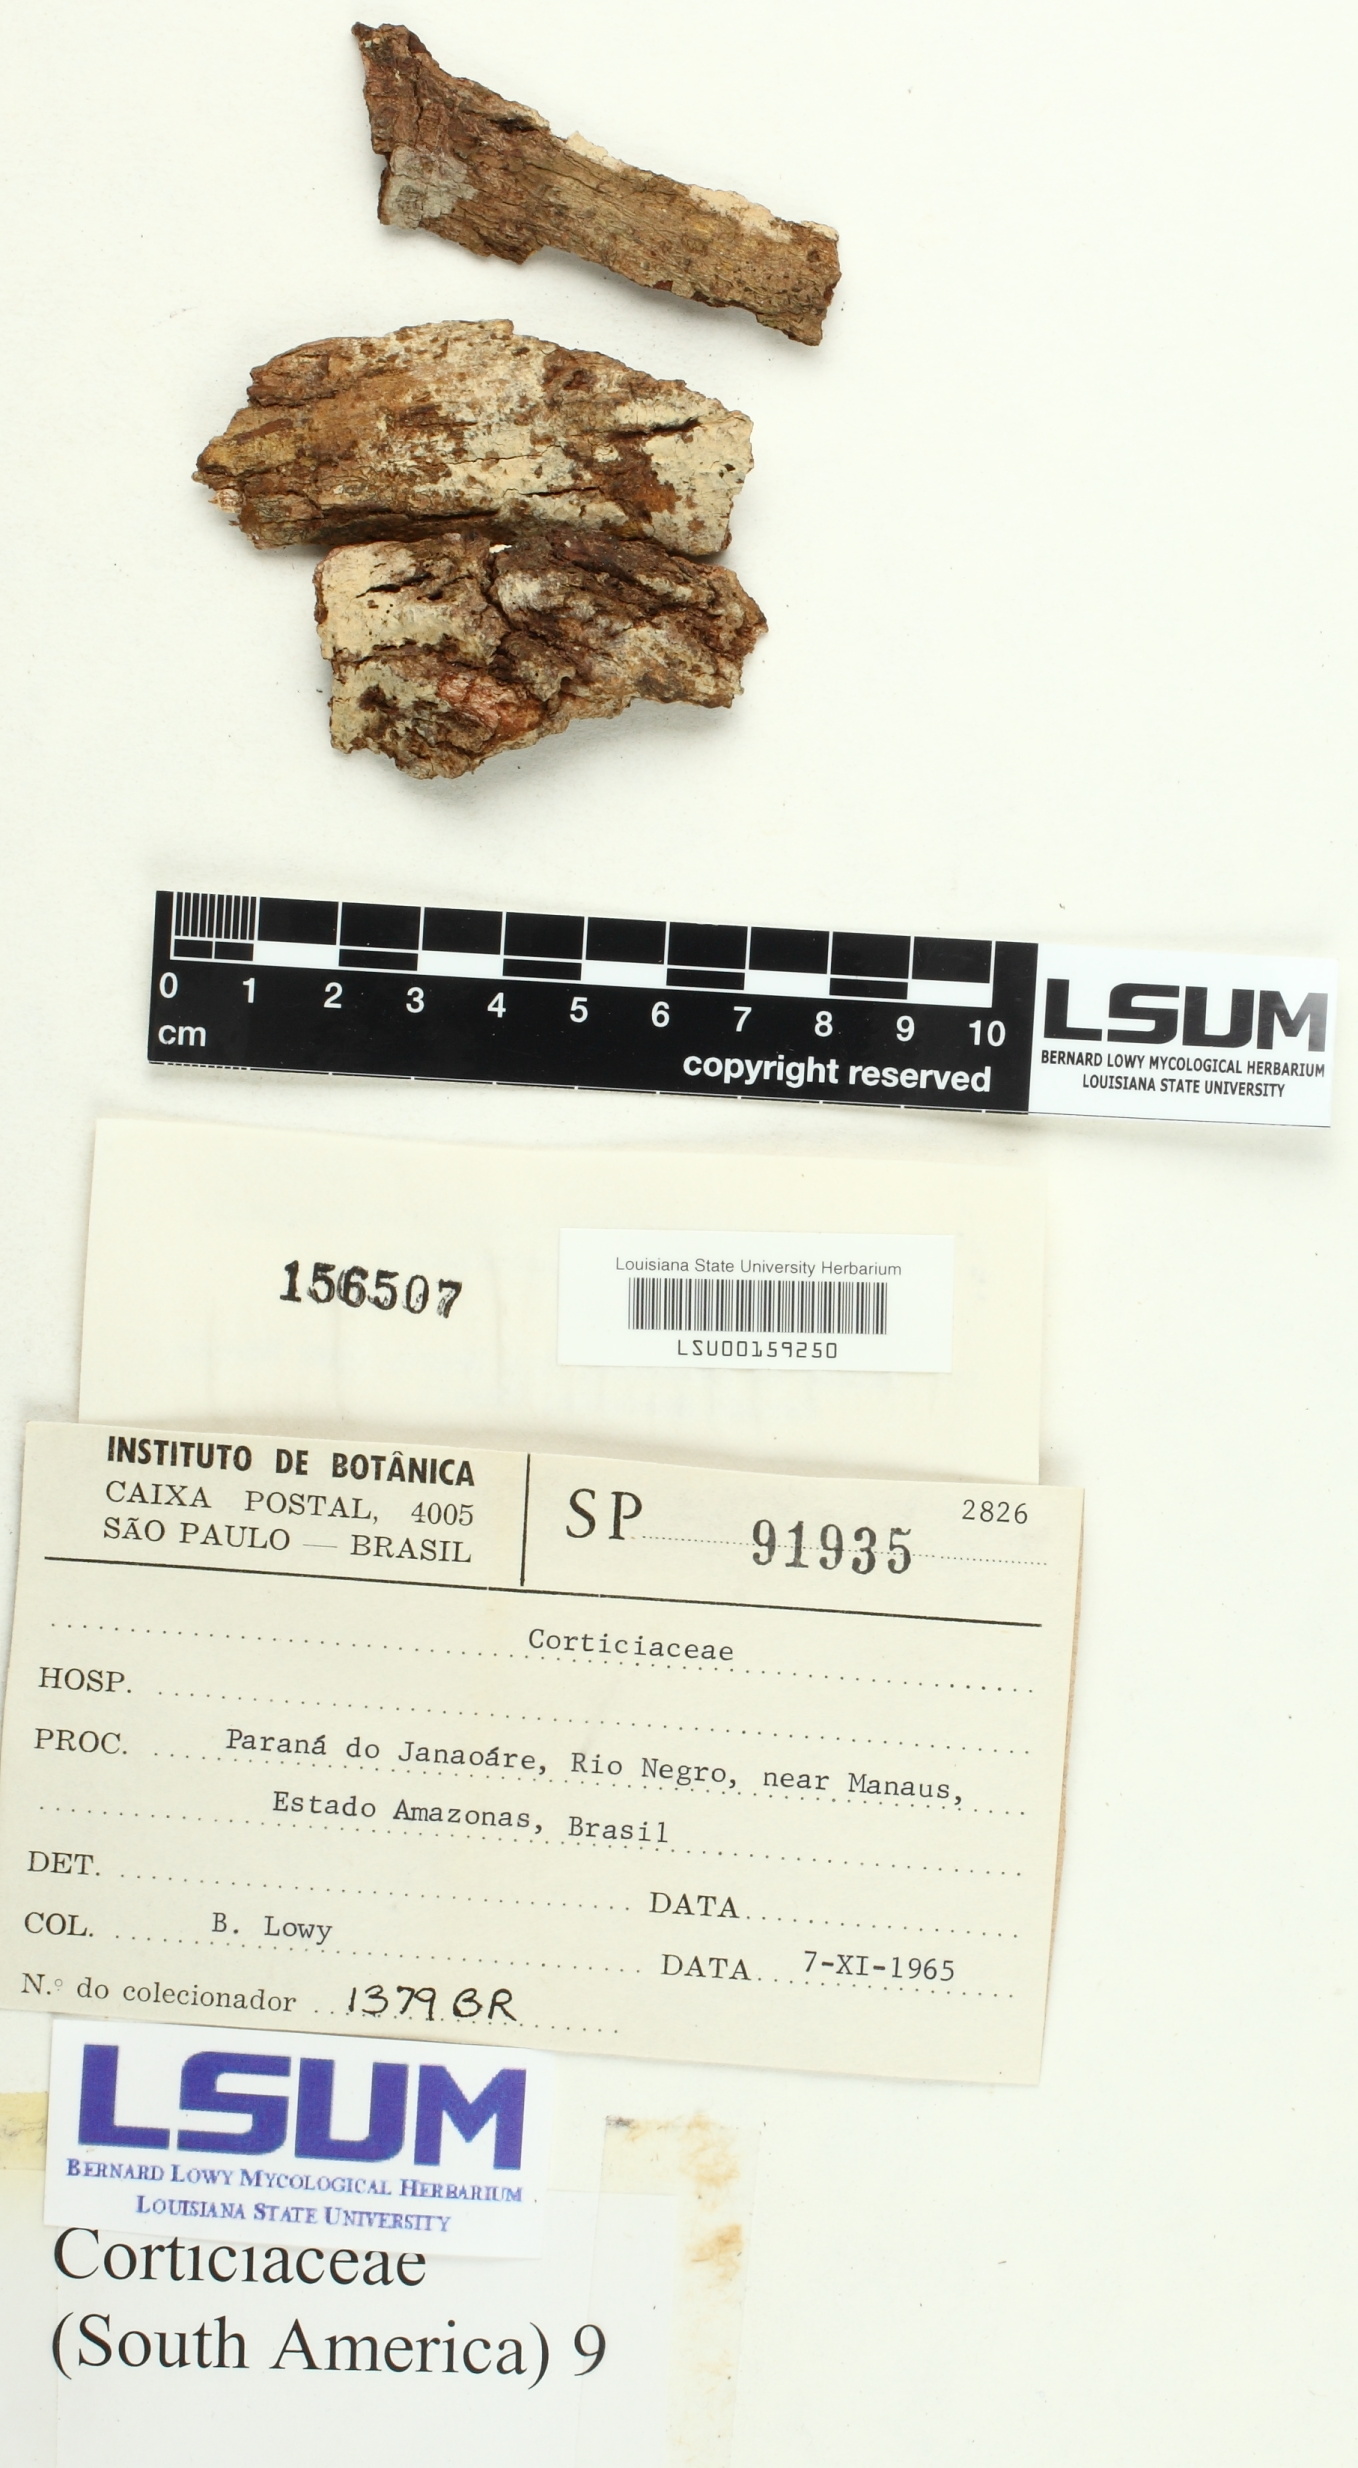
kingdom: Fungi
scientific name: Fungi
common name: Fungi
